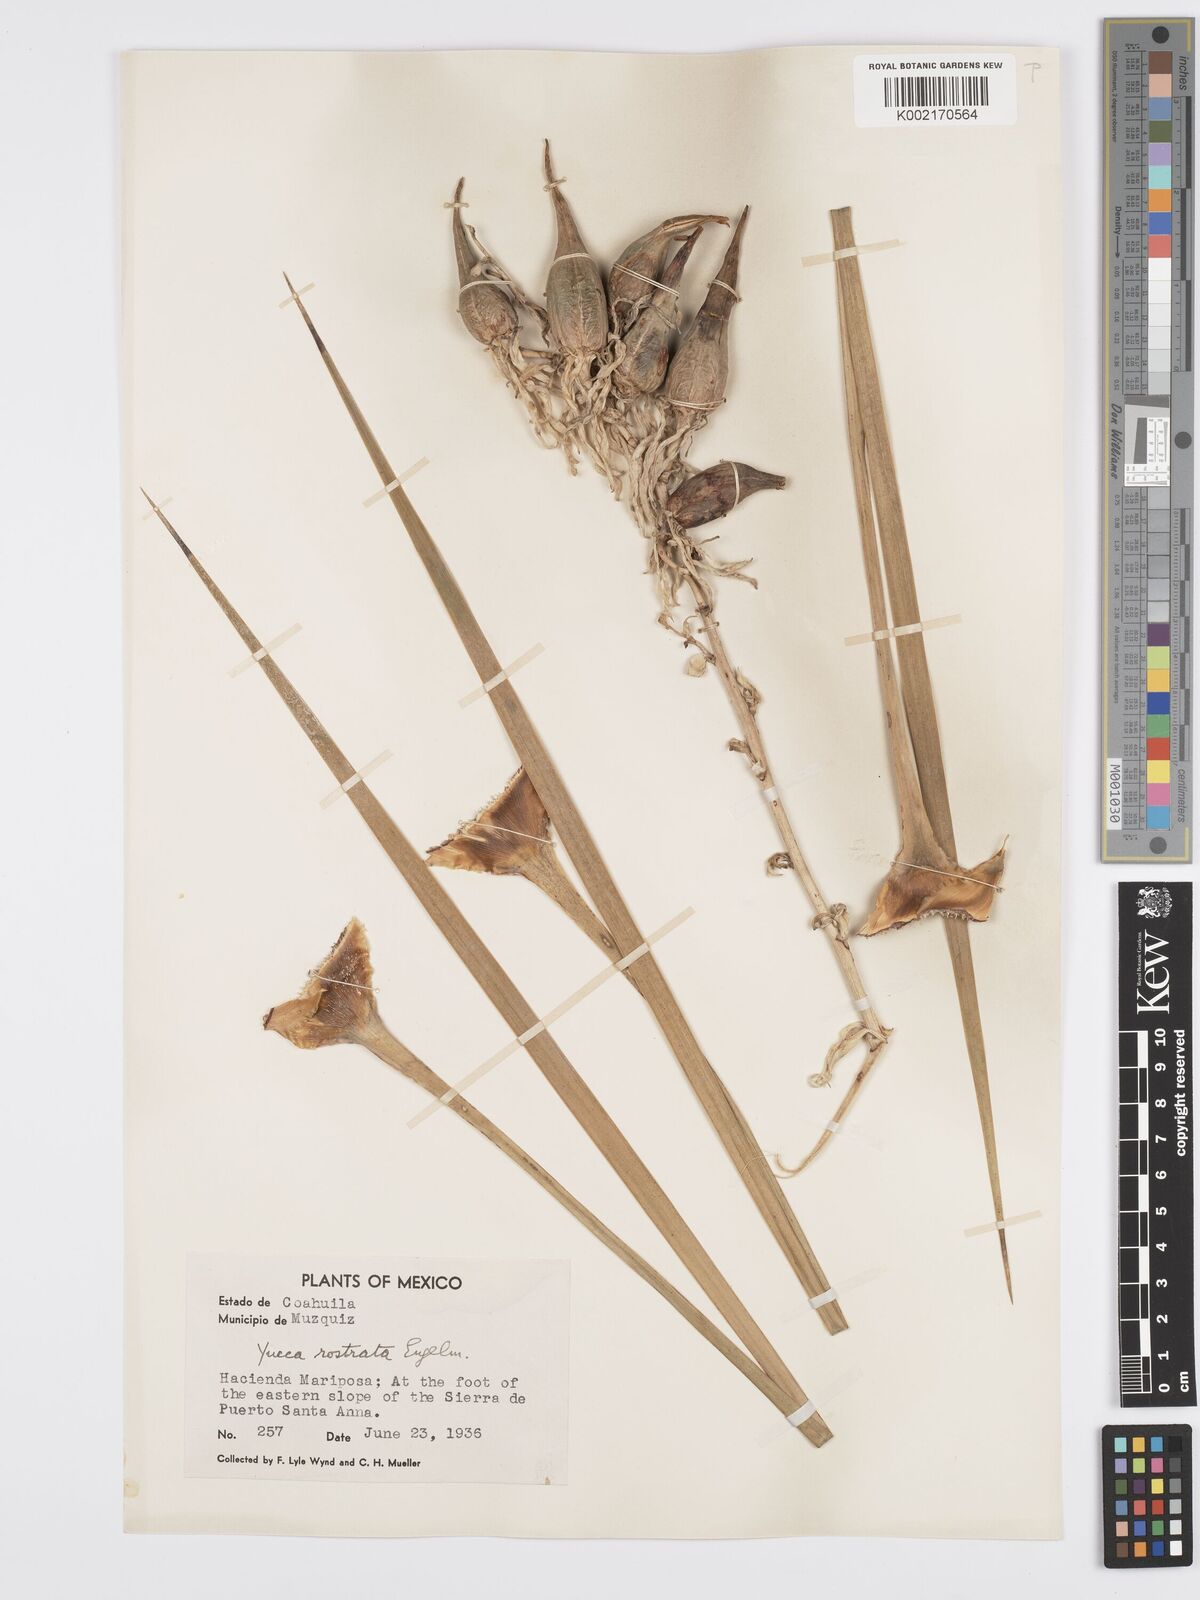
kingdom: Plantae
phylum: Tracheophyta
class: Liliopsida
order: Asparagales
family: Asparagaceae
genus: Yucca
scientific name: Yucca rostrata
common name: Big bend yucca
